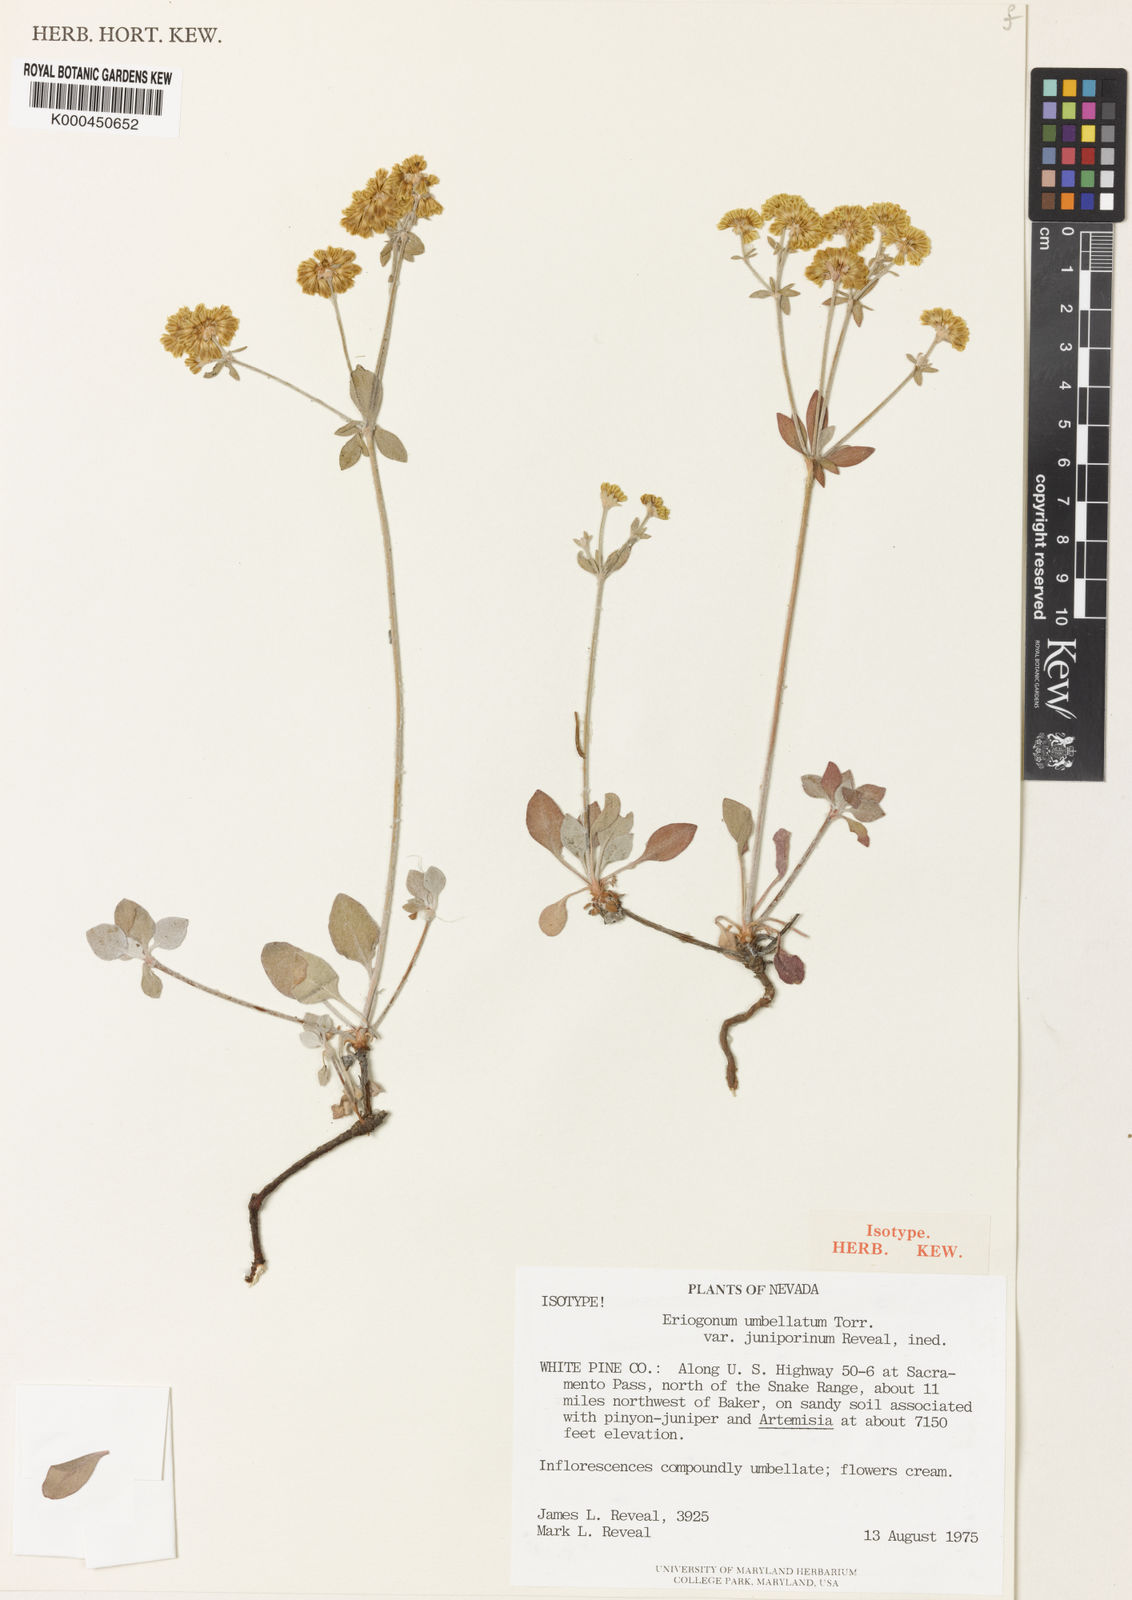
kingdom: Plantae
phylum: Tracheophyta
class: Magnoliopsida
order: Caryophyllales
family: Polygonaceae
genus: Eriogonum
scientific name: Eriogonum umbellatum
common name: Sulfur-buckwheat
